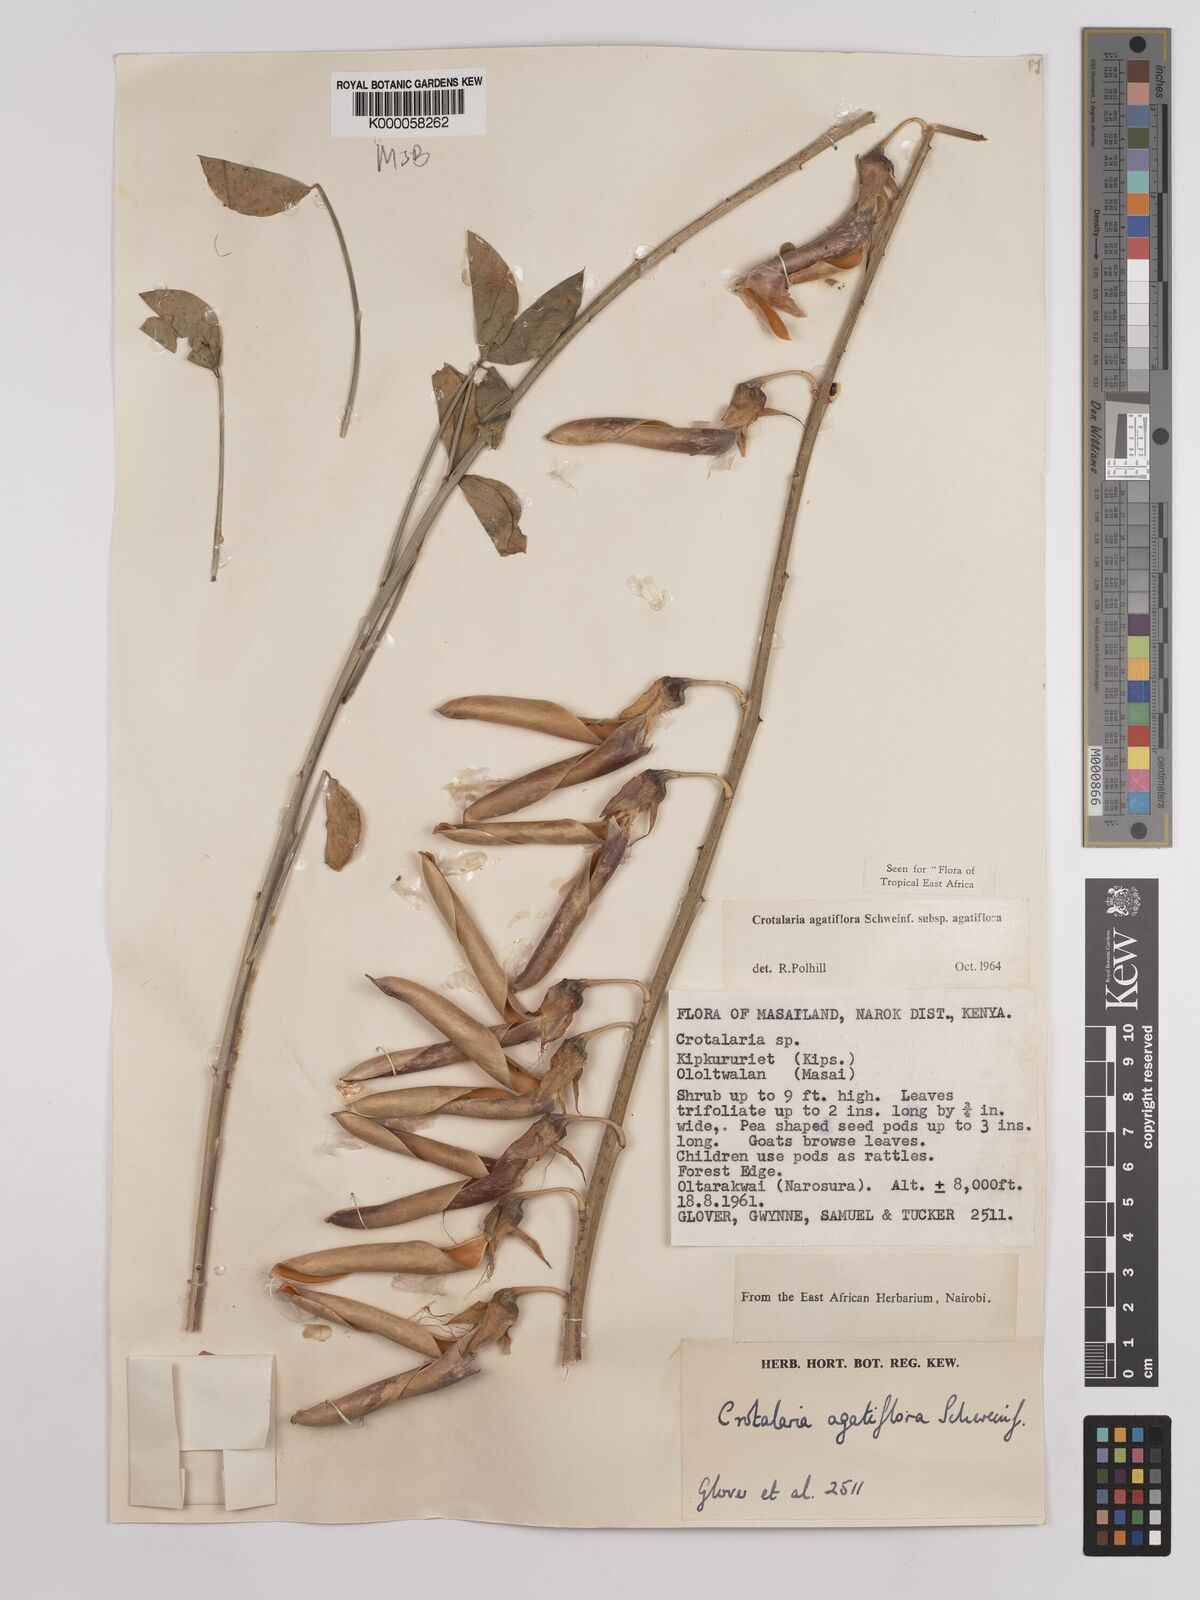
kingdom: Plantae
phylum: Tracheophyta
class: Magnoliopsida
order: Fabales
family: Fabaceae
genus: Crotalaria
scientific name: Crotalaria agatiflora
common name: Birdflower
